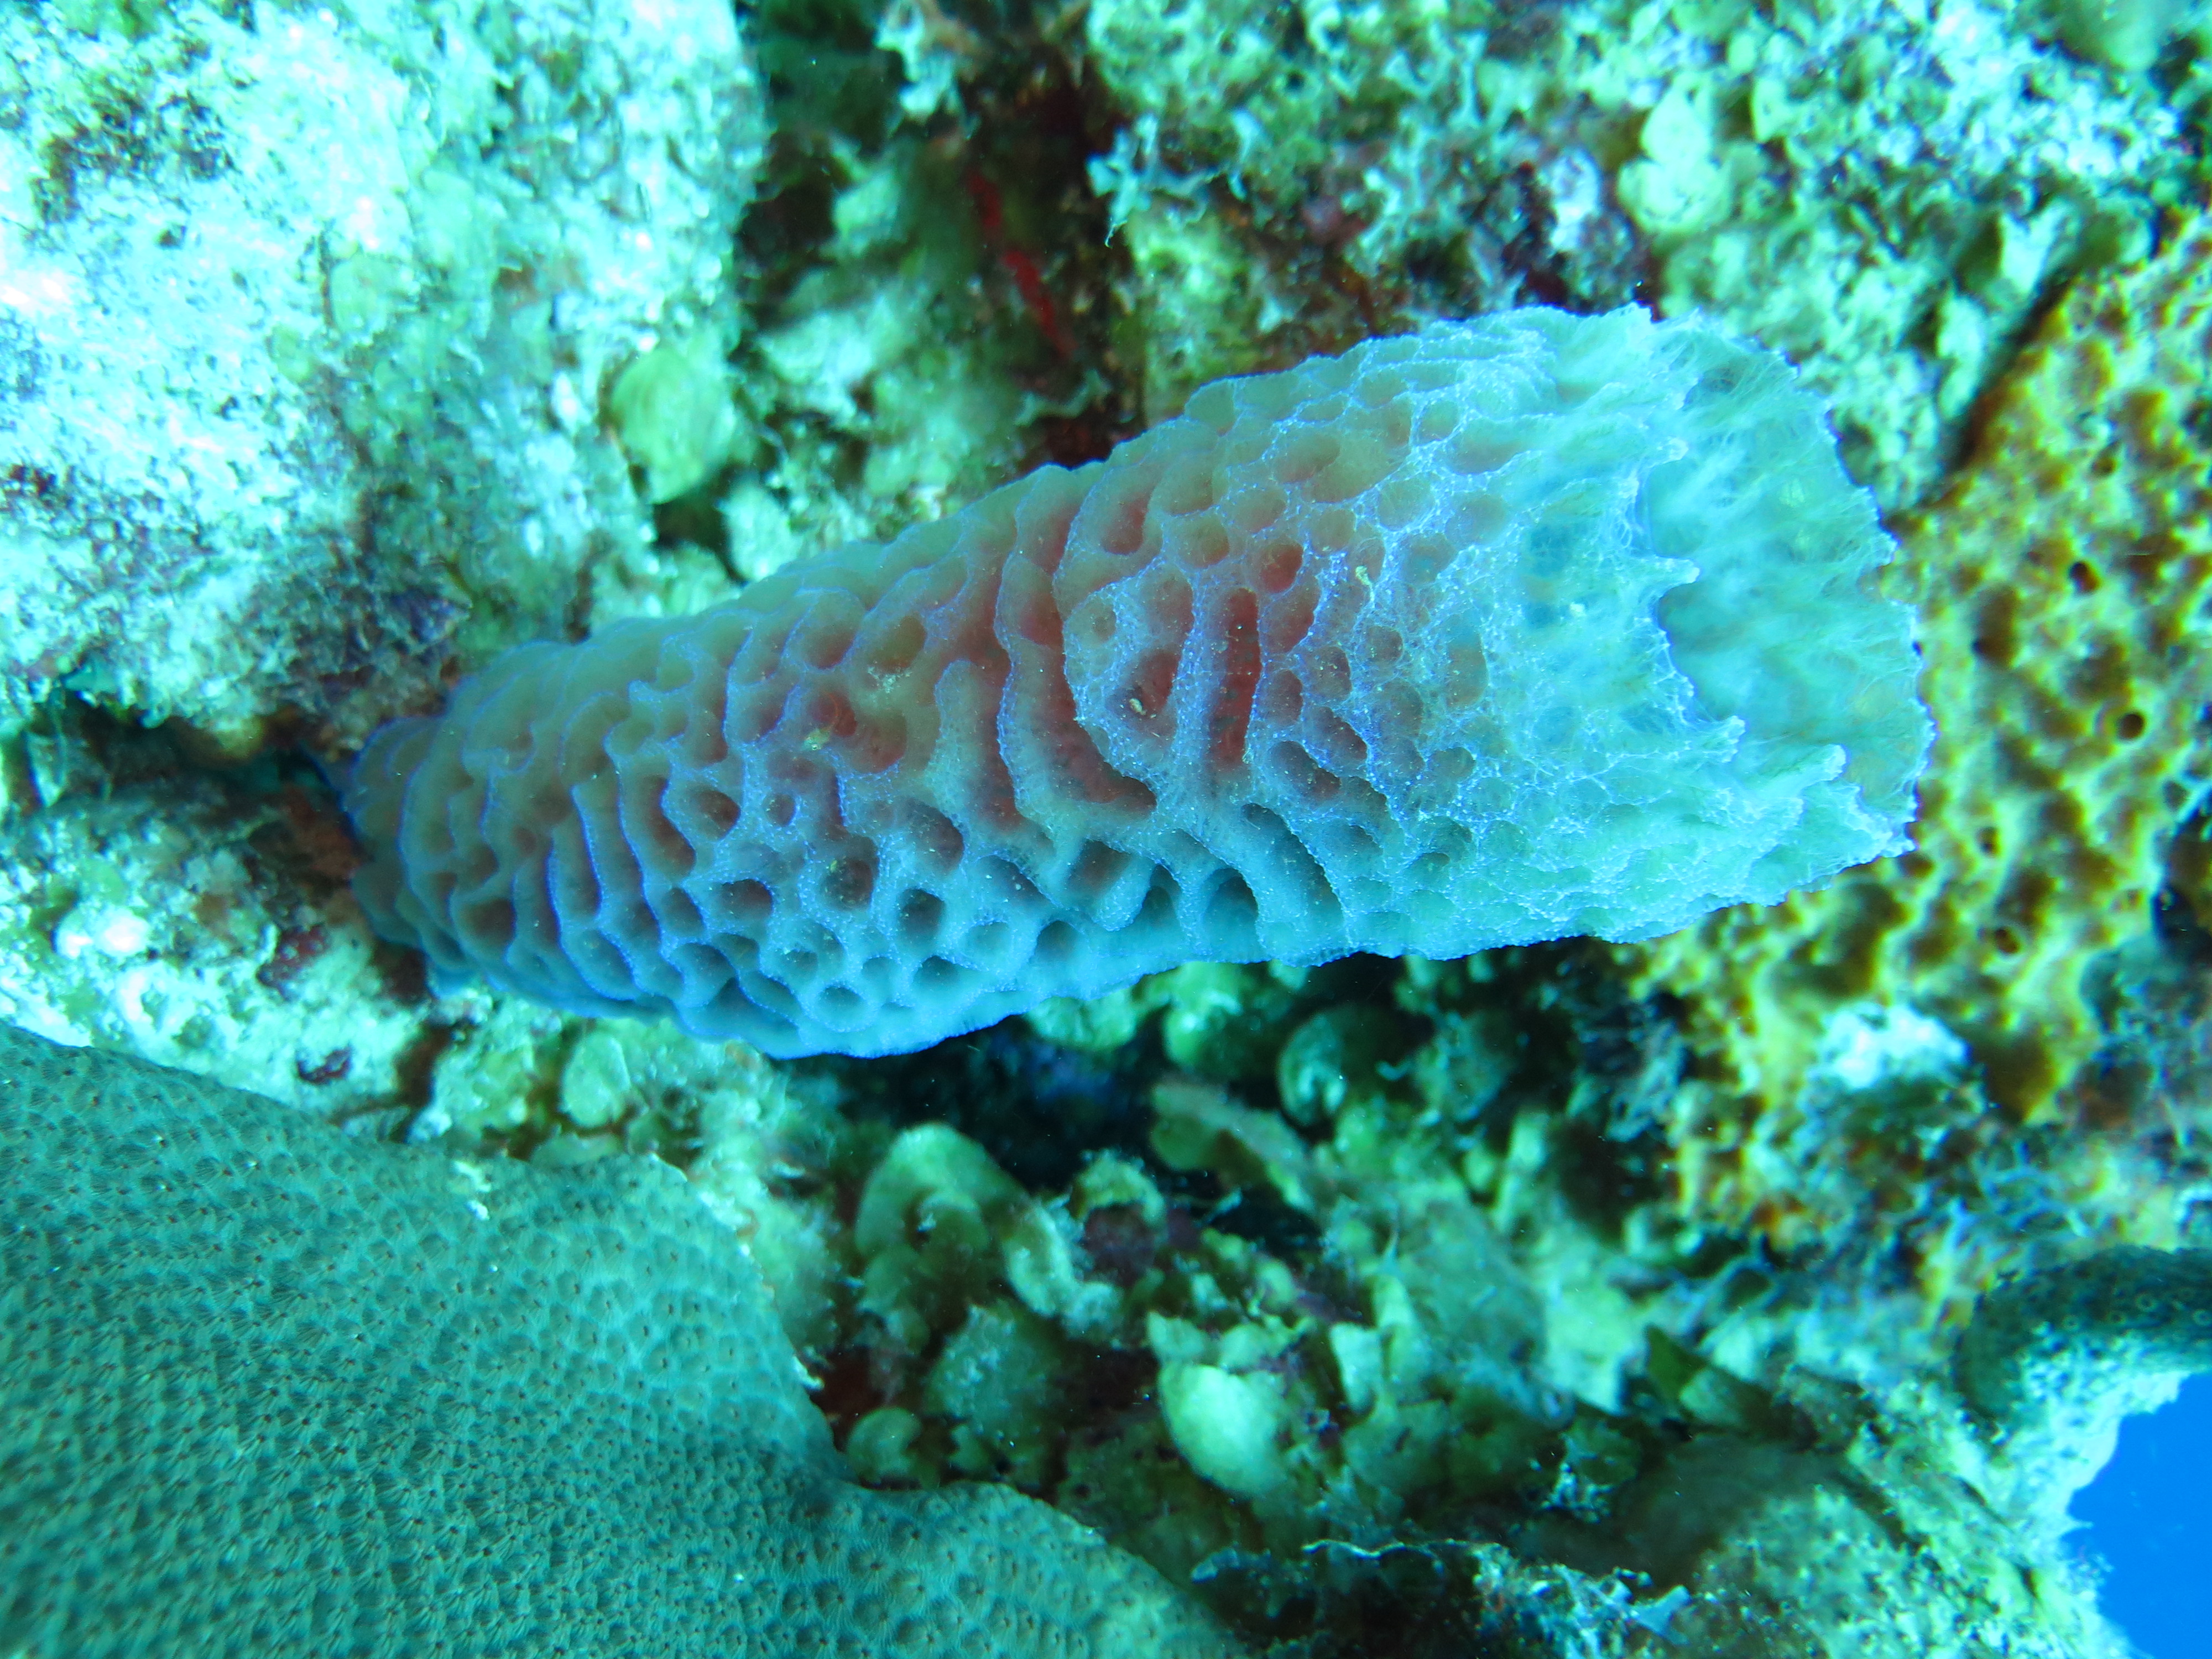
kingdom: Animalia
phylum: Porifera
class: Demospongiae
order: Haplosclerida
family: Callyspongiidae
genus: Callyspongia
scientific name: Callyspongia plicifera
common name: Azure vase sponge
